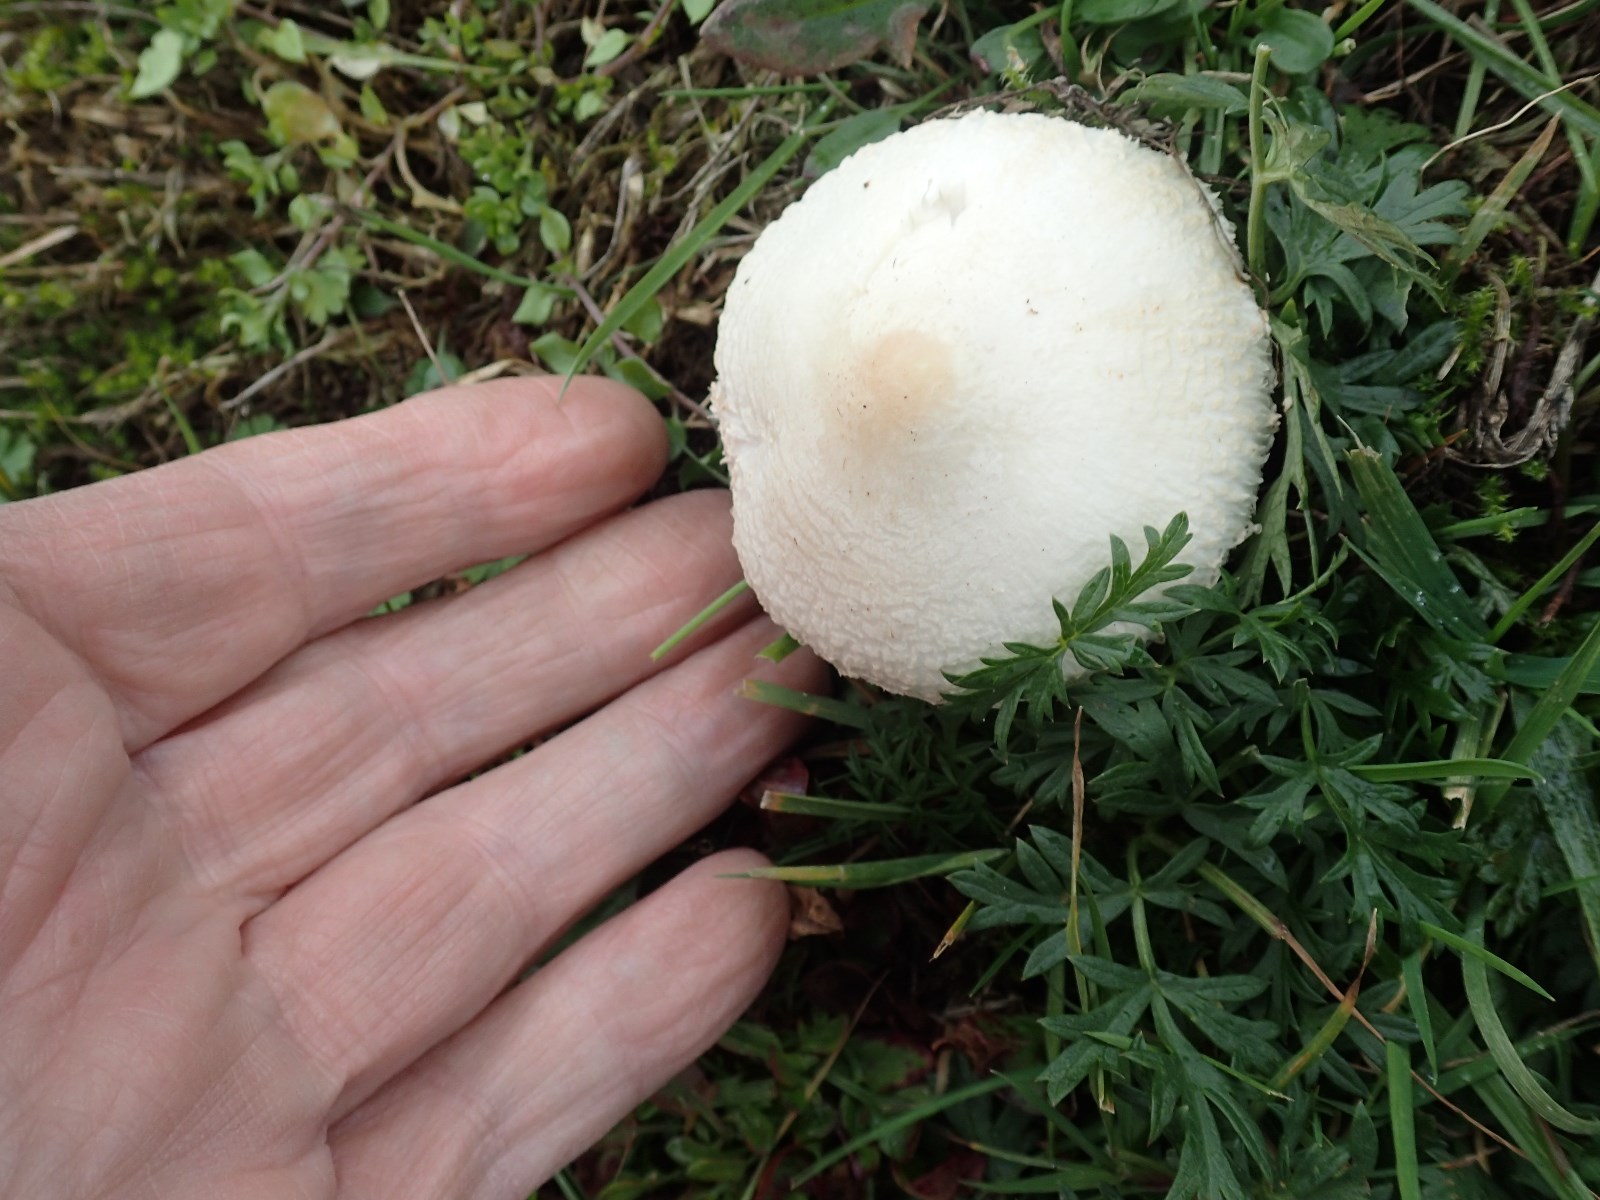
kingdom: Fungi
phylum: Basidiomycota
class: Agaricomycetes
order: Agaricales
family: Agaricaceae
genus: Macrolepiota
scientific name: Macrolepiota excoriata
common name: mark-kæmpeparasolhat
